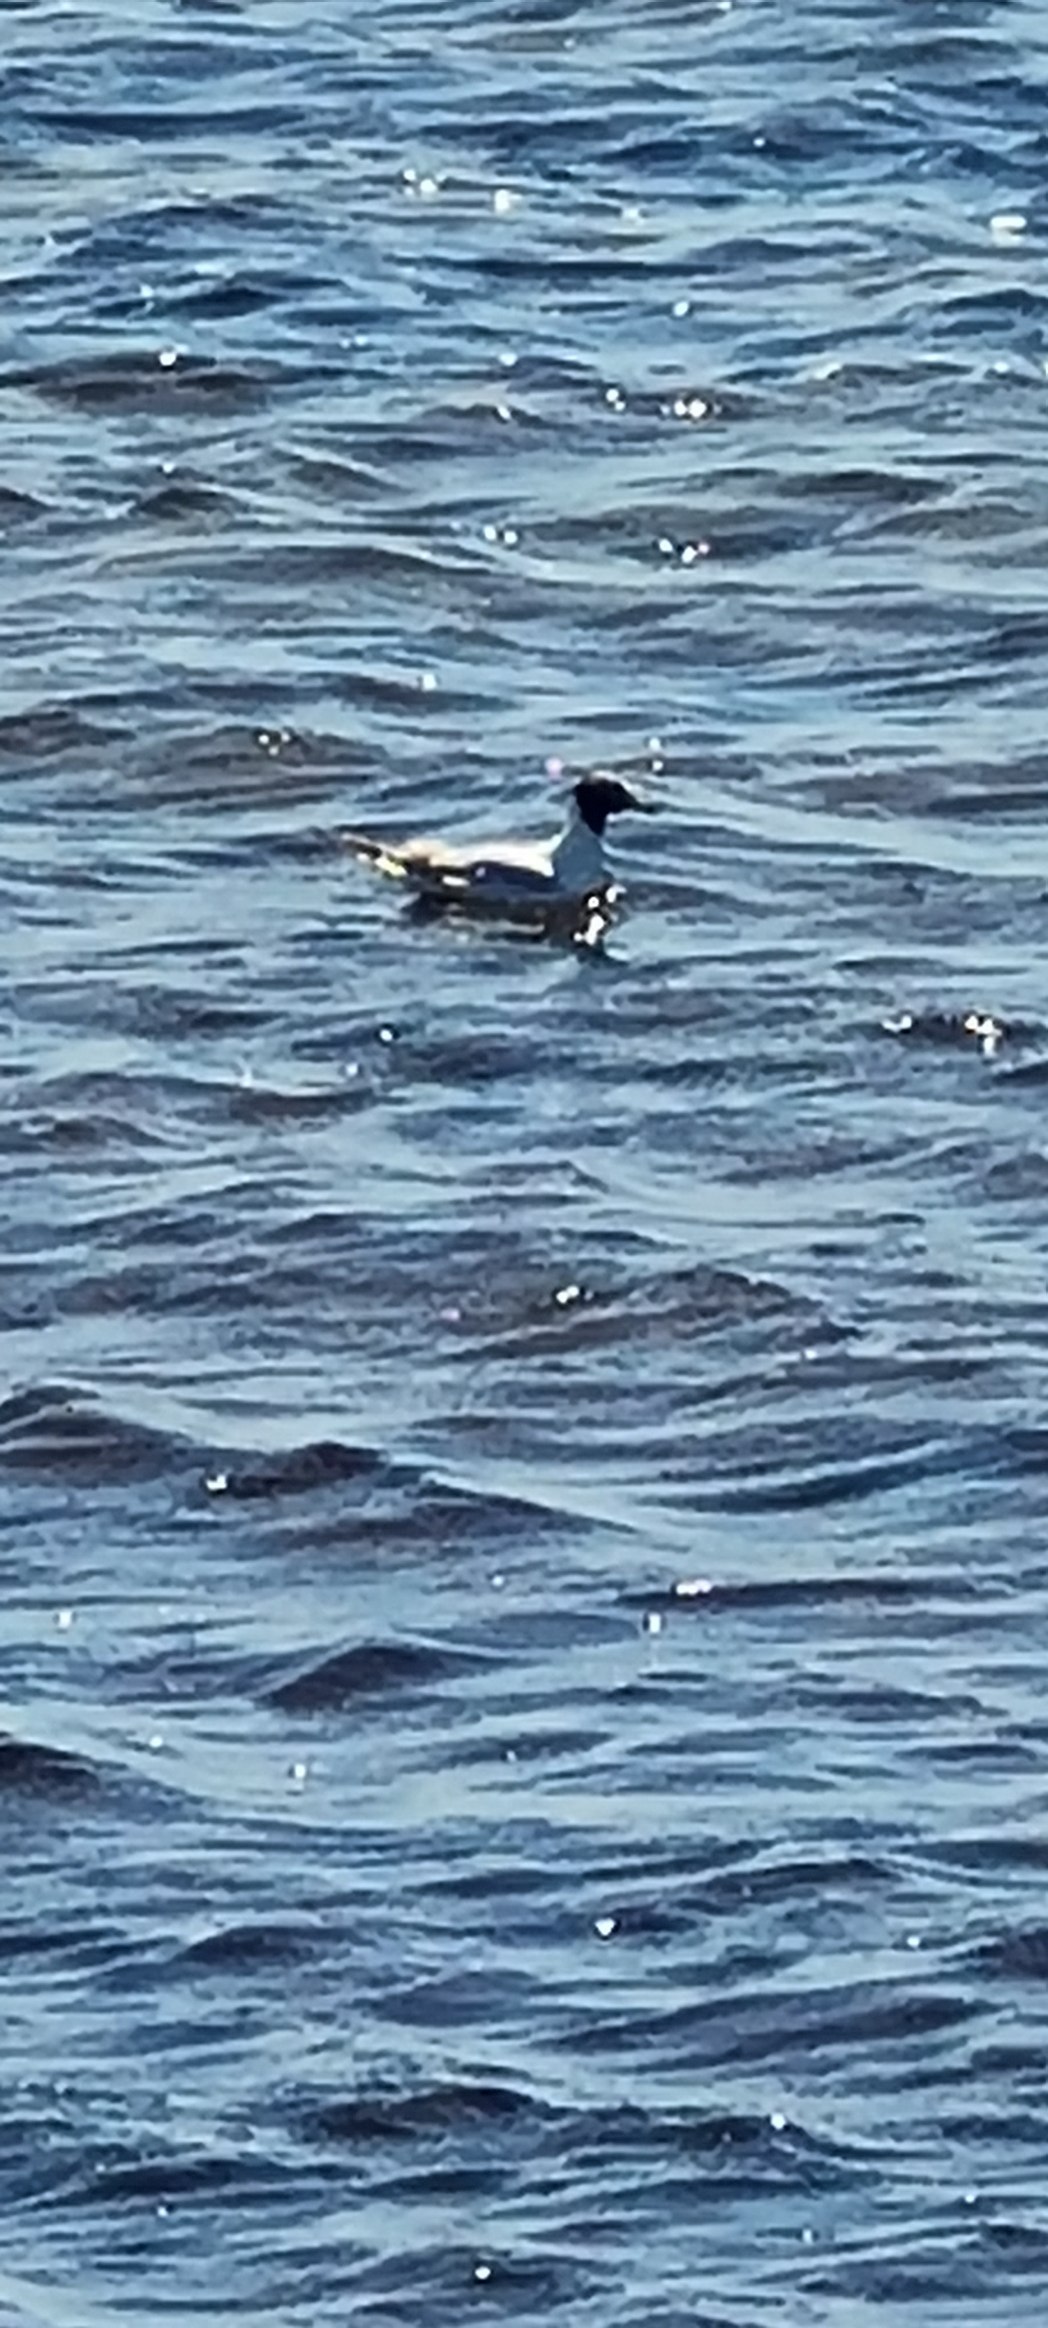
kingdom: Animalia
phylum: Chordata
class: Aves
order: Charadriiformes
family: Laridae
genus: Chroicocephalus
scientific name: Chroicocephalus ridibundus
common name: Hættemåge
